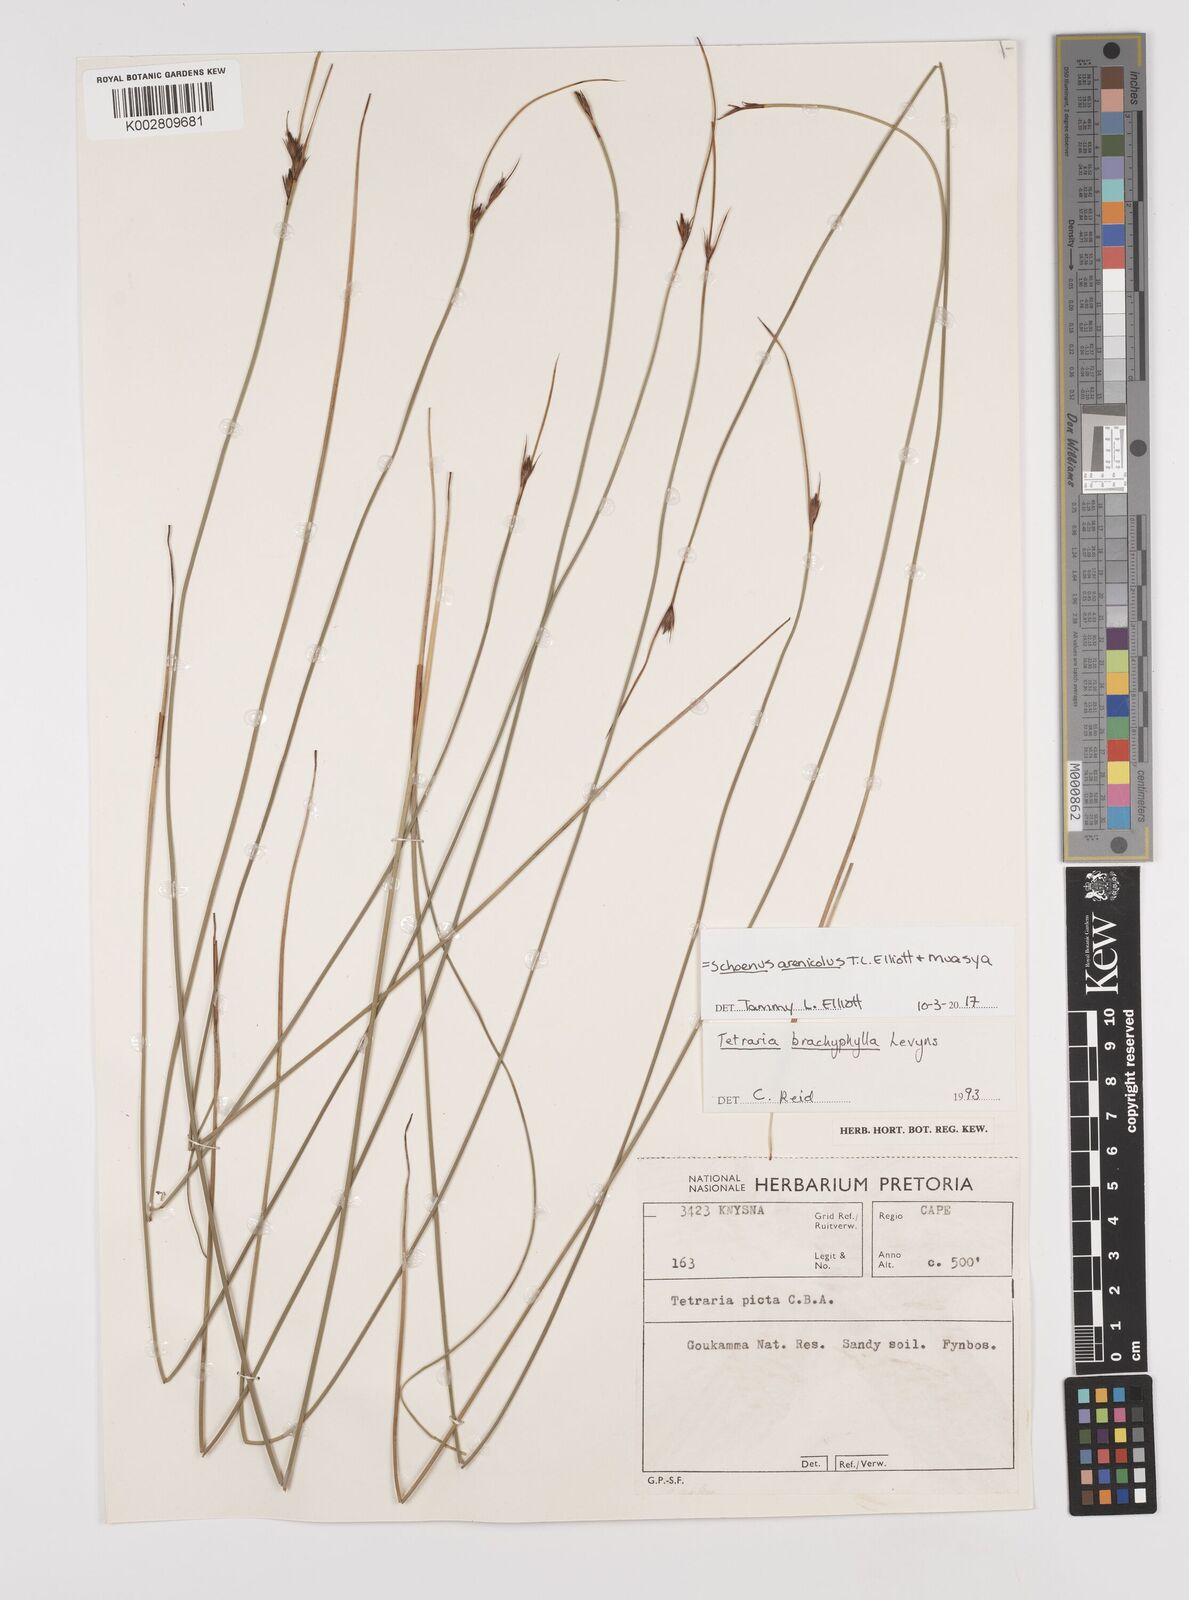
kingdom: Plantae
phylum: Tracheophyta
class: Liliopsida
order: Poales
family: Cyperaceae
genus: Schoenus
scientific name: Schoenus arenicola
